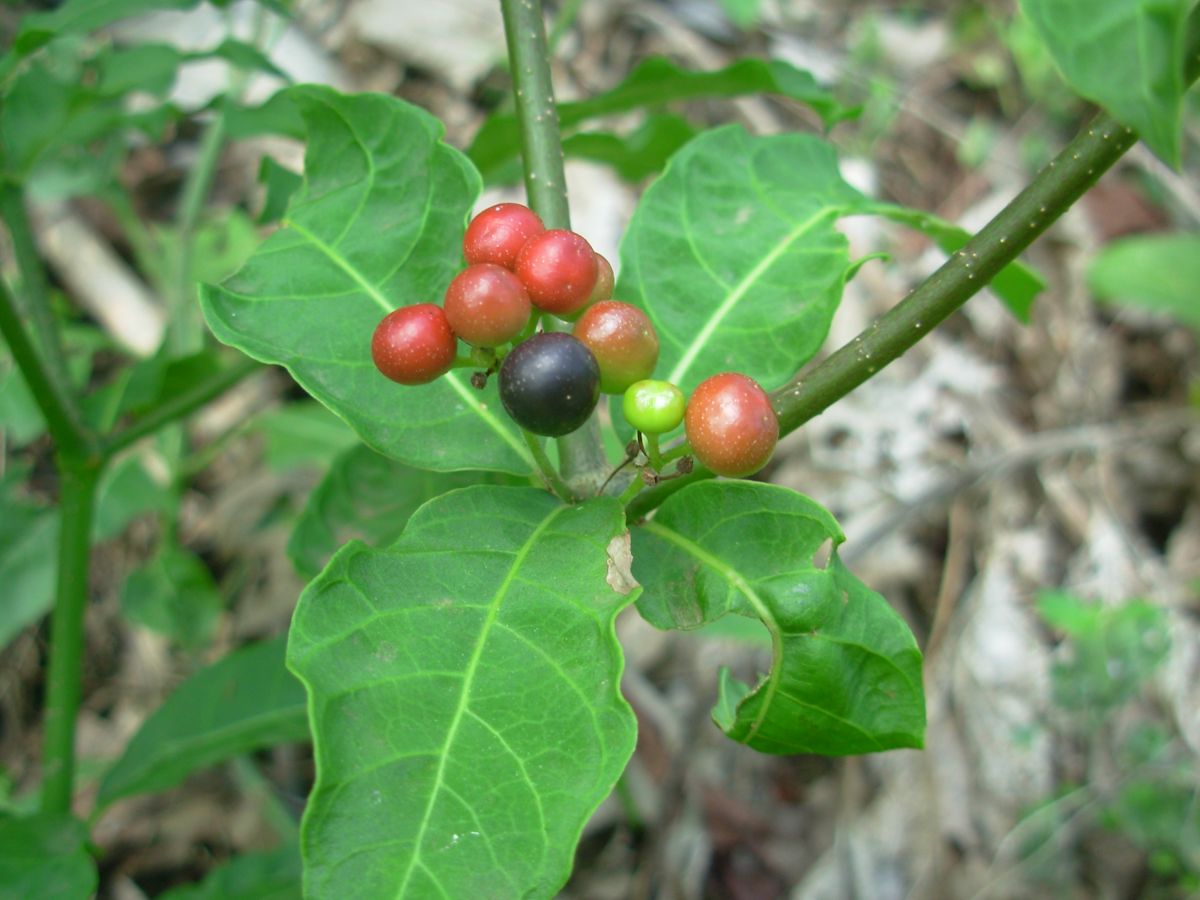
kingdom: Plantae
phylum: Tracheophyta
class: Magnoliopsida
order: Gentianales
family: Apocynaceae
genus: Rauvolfia
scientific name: Rauvolfia tetraphylla
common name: Four-leaf devil-pepper
